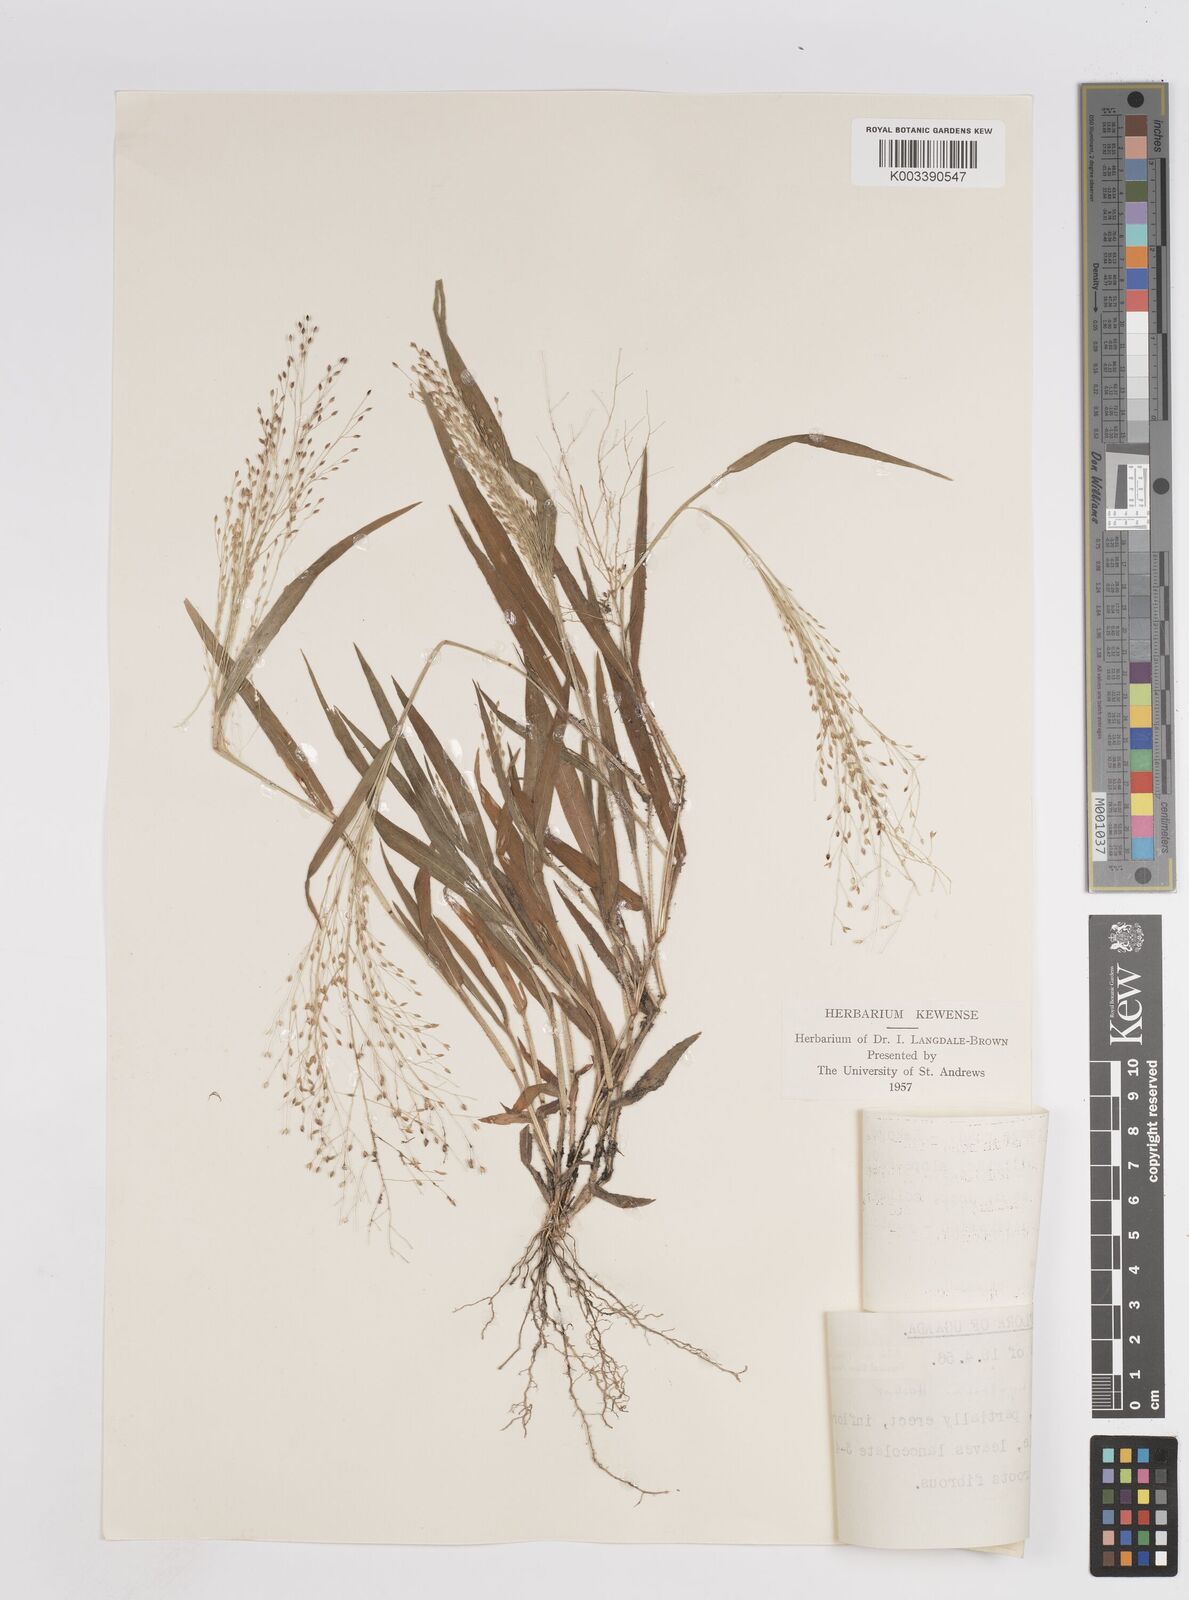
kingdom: Plantae
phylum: Tracheophyta
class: Liliopsida
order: Poales
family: Poaceae
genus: Panicum
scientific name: Panicum atrosanguineum
